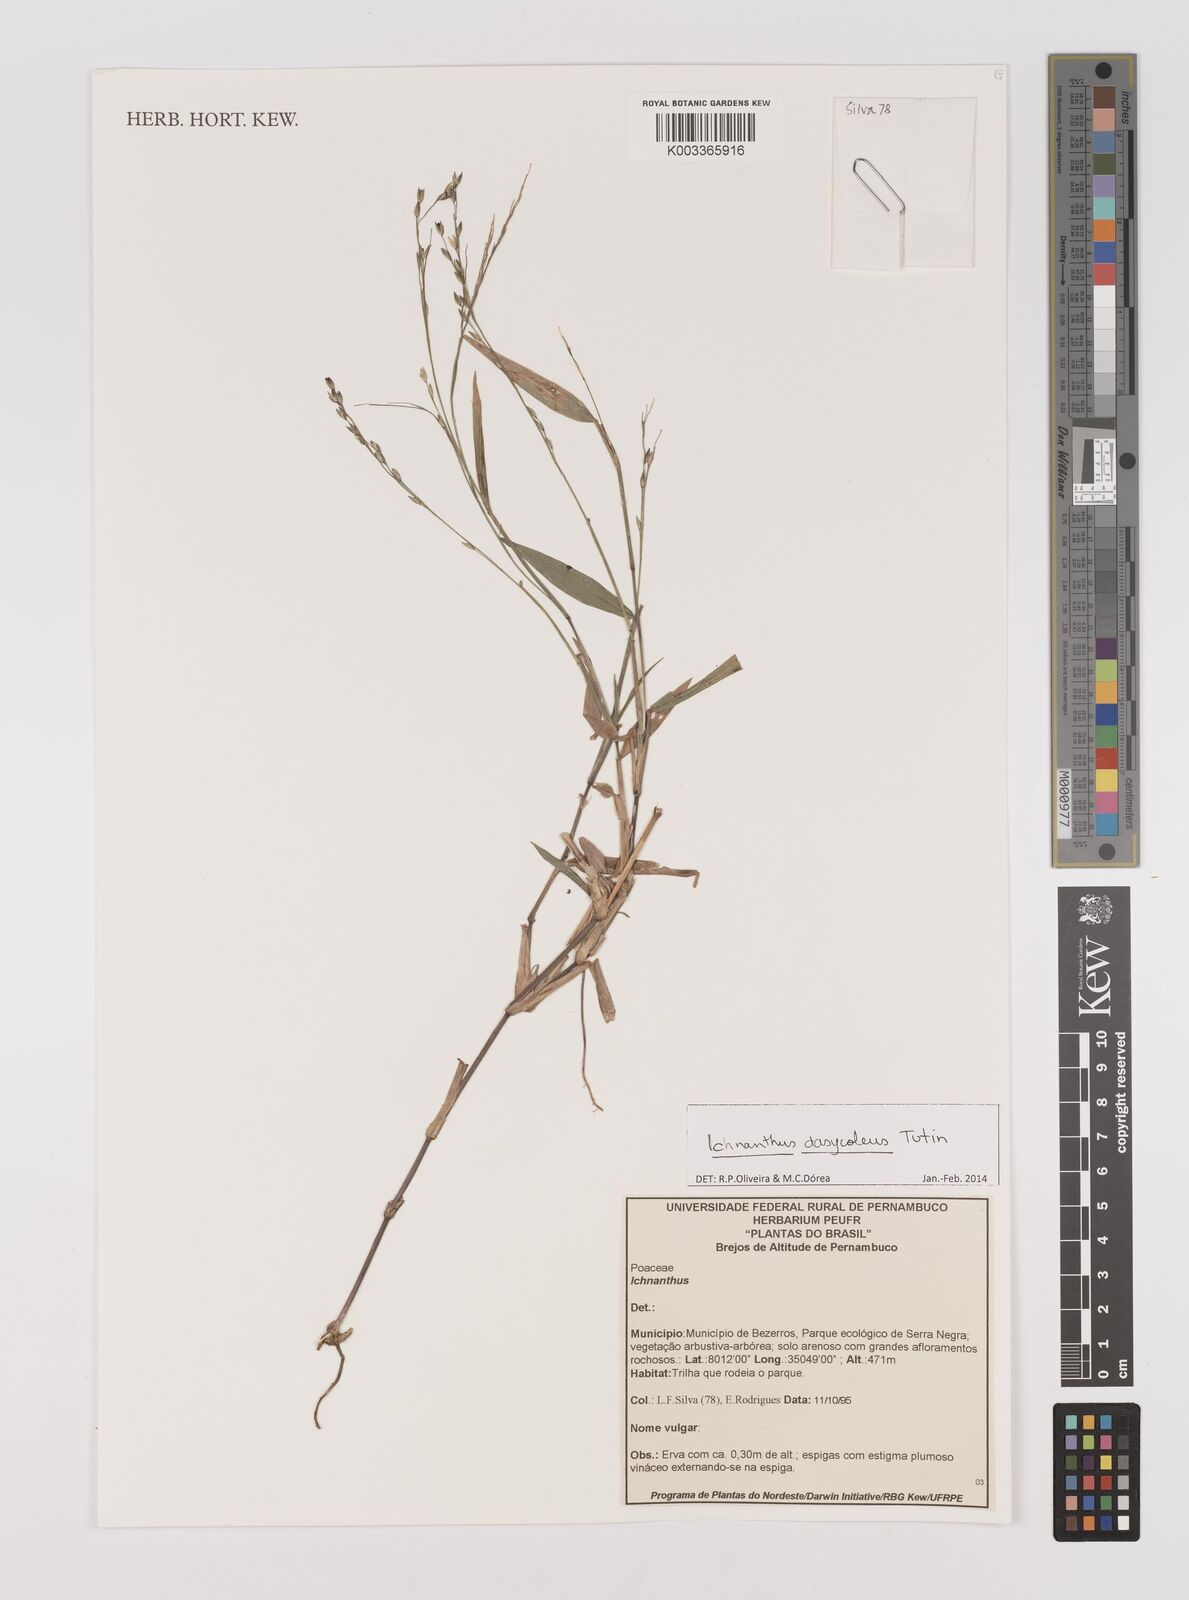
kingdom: Plantae
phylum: Tracheophyta
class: Liliopsida
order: Poales
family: Poaceae
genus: Ichnanthus
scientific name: Ichnanthus dasycoleus
